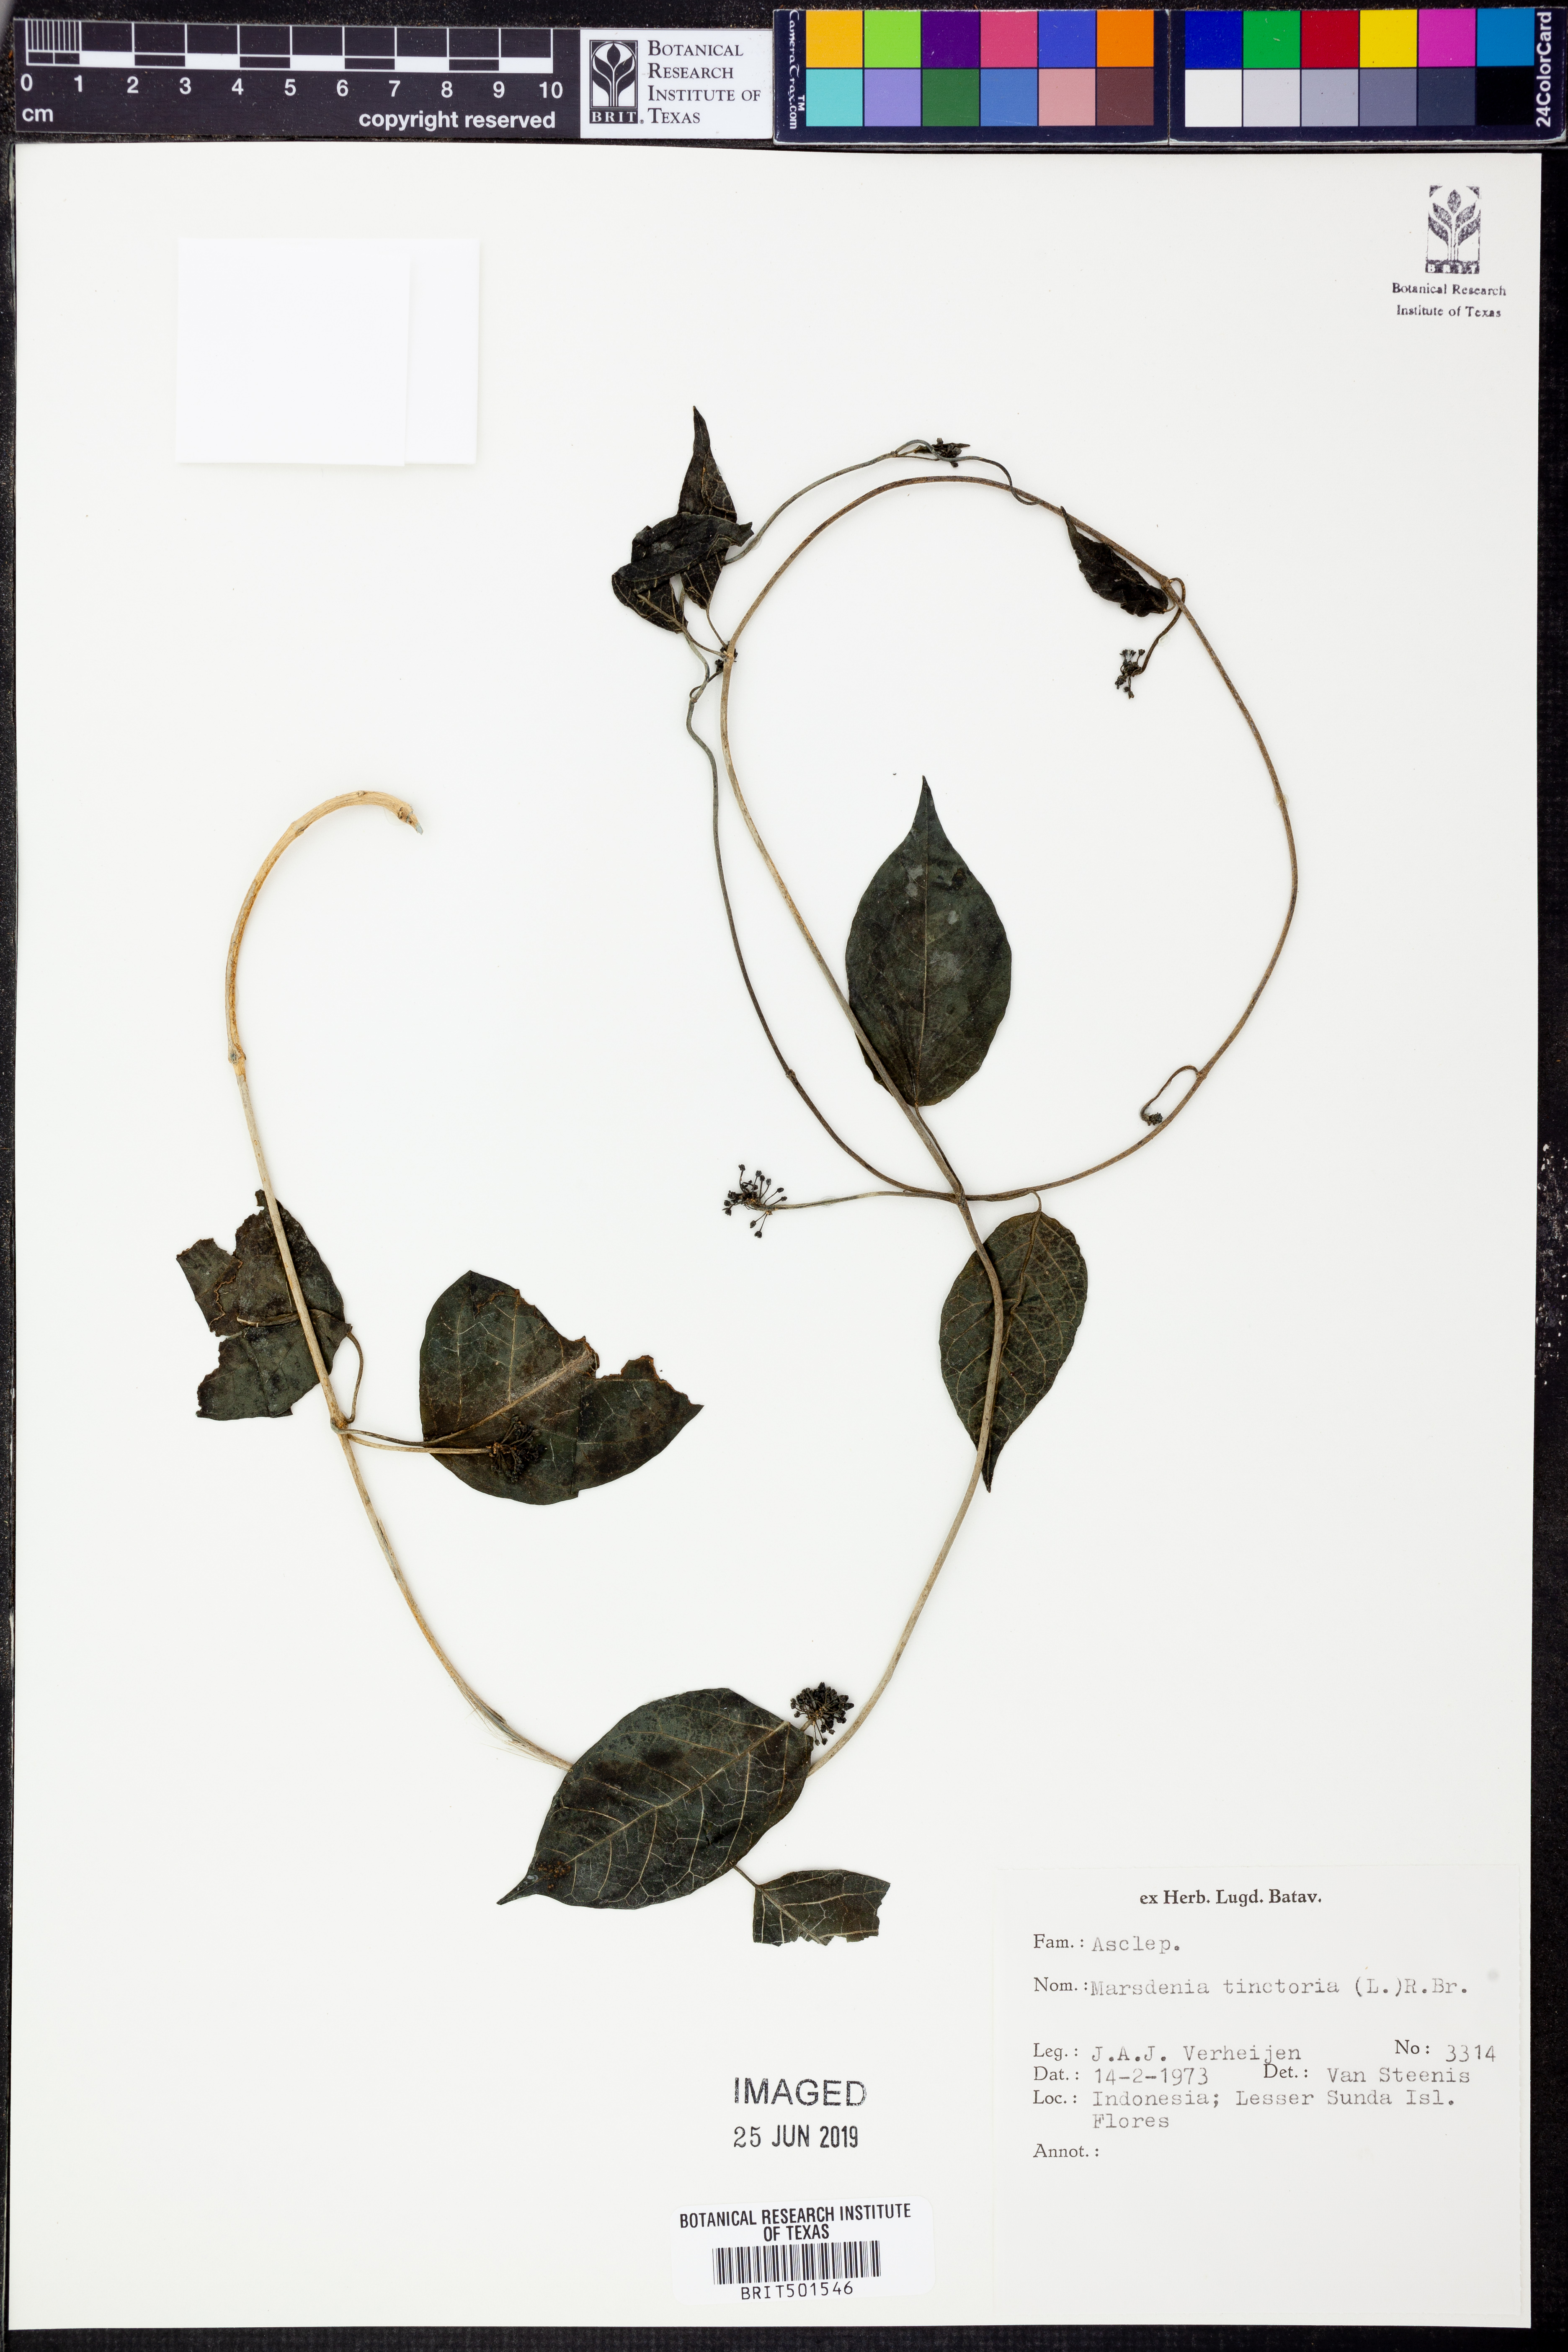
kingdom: Plantae
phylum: Tracheophyta
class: Magnoliopsida
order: Gentianales
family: Apocynaceae
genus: Marsdenia
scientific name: Marsdenia tinctoria
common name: Climbing-indigo
